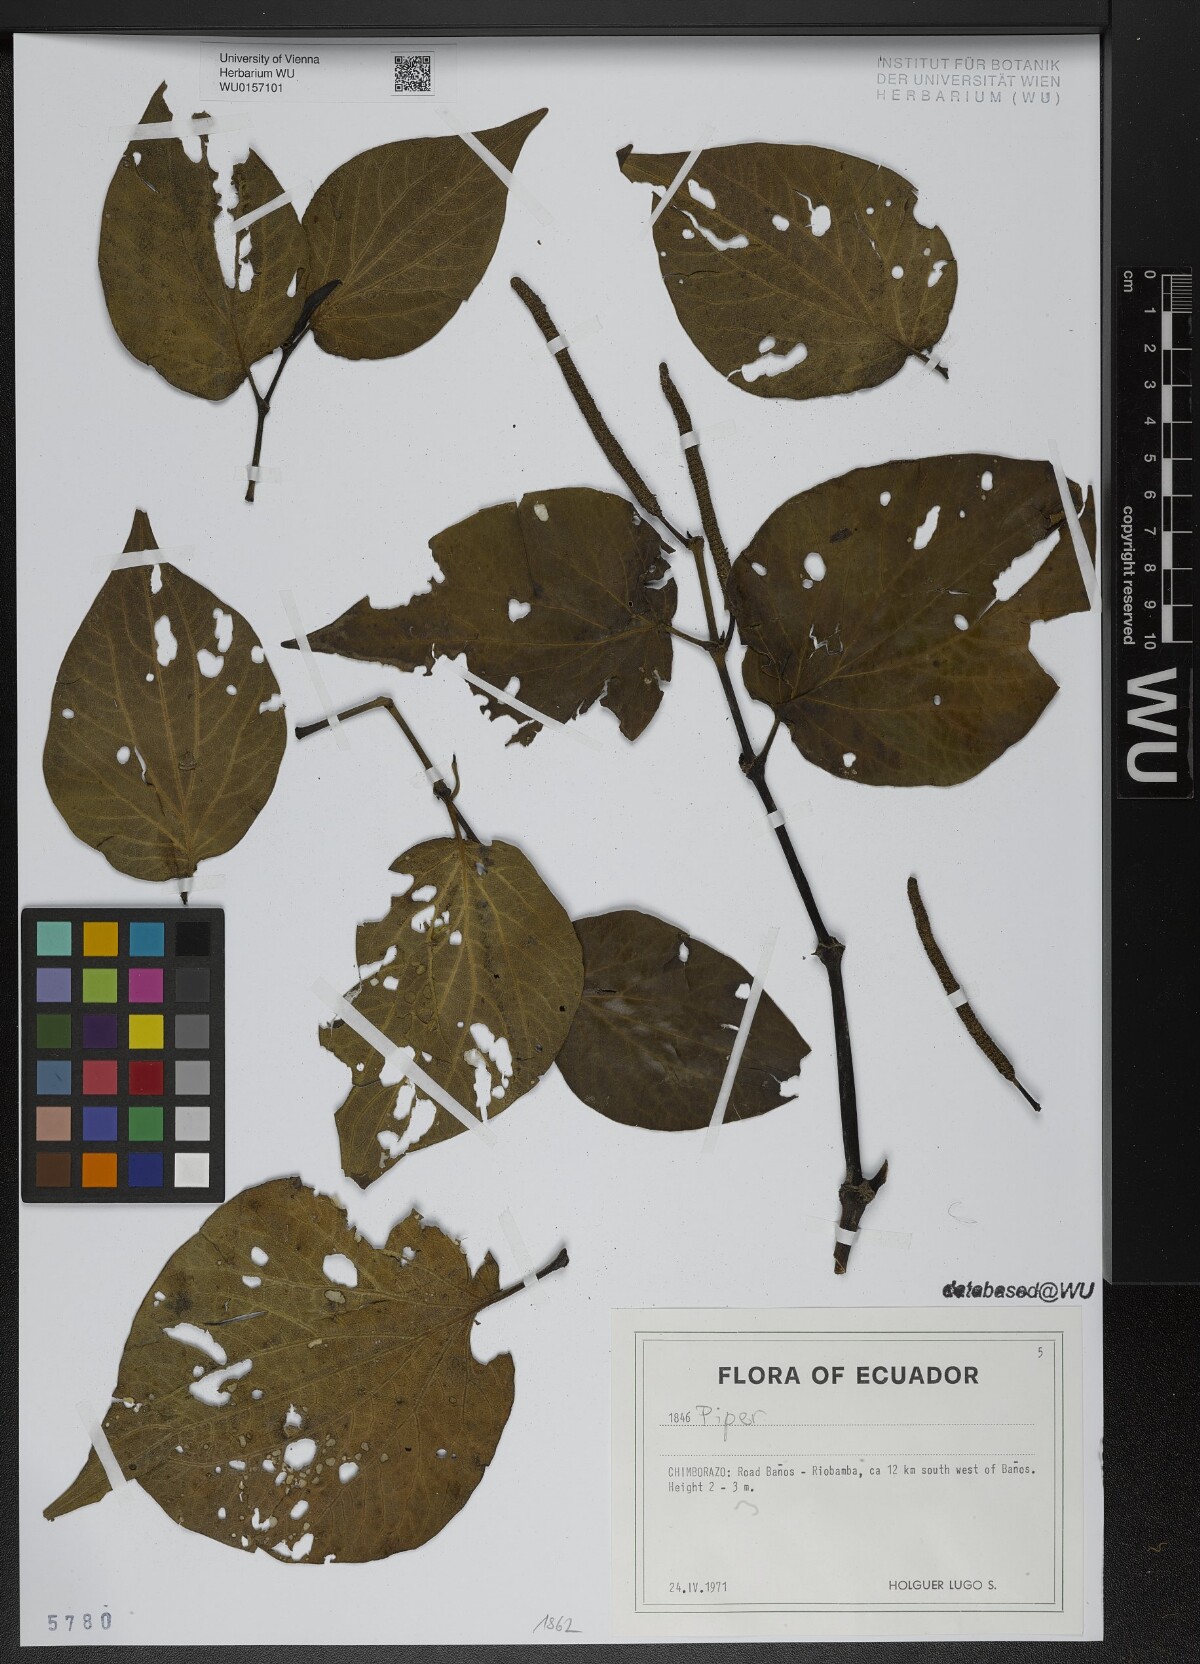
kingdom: Plantae
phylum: Tracheophyta
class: Magnoliopsida
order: Piperales
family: Piperaceae
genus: Piper
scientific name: Piper
